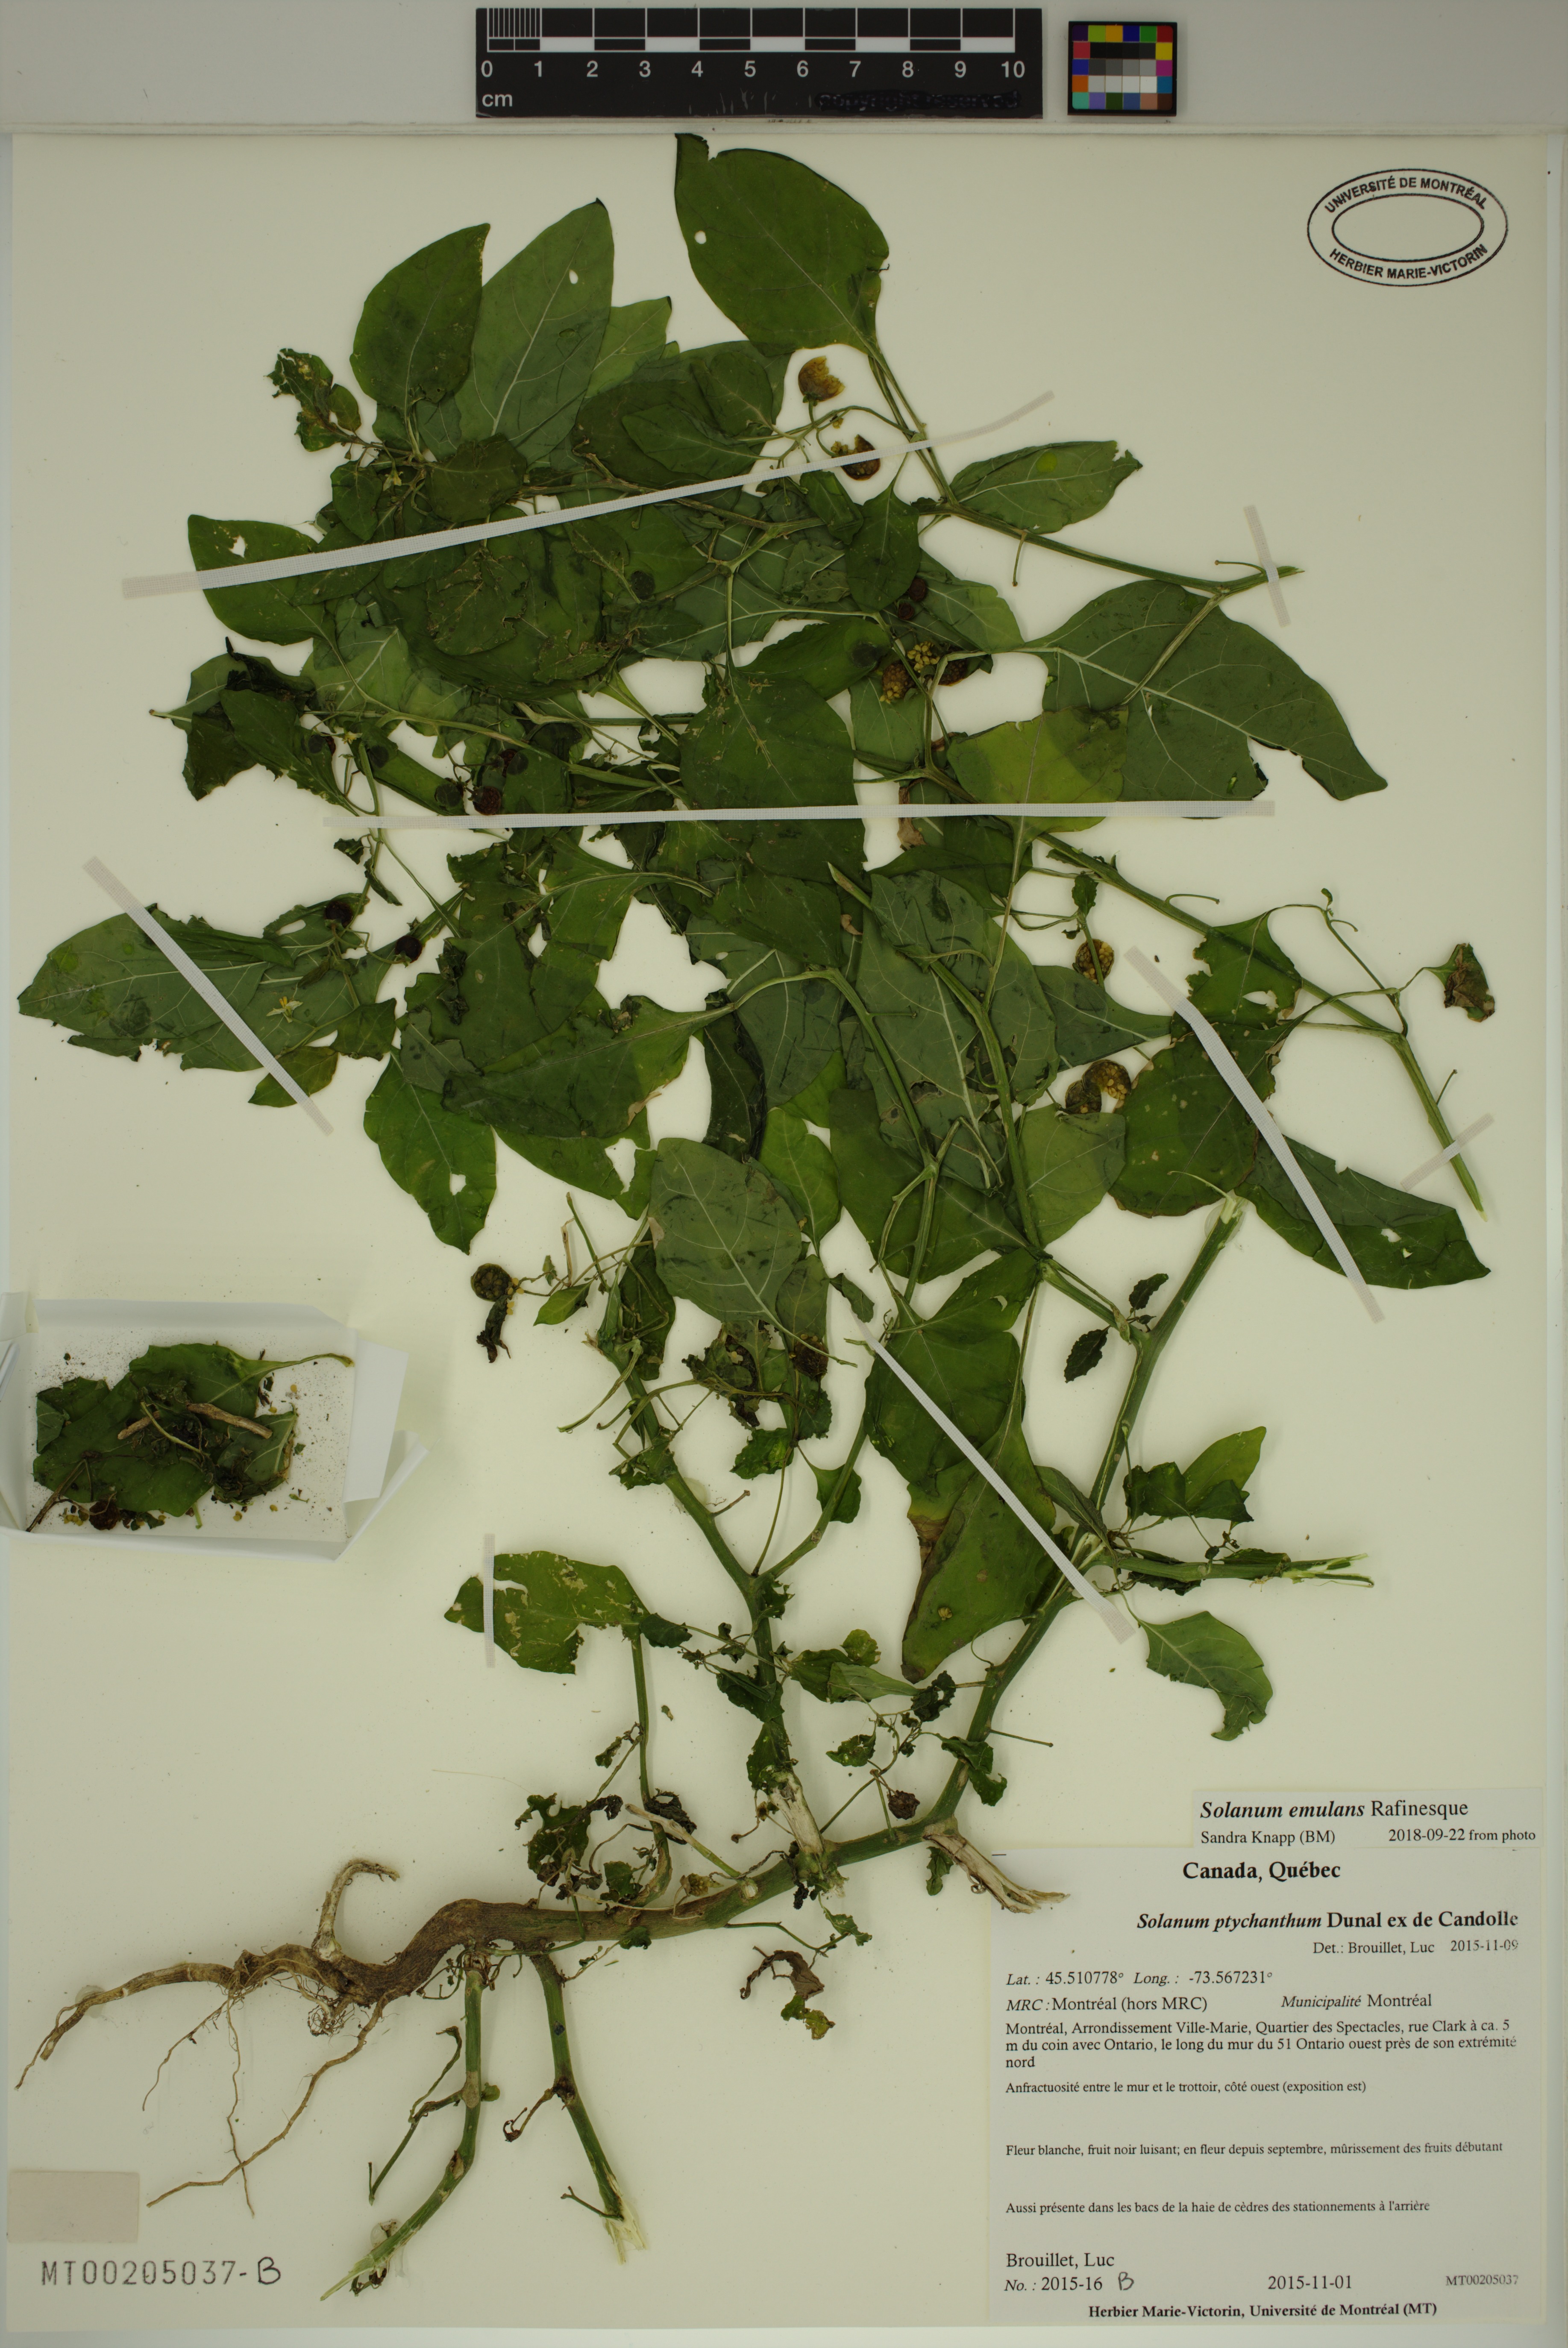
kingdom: Plantae
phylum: Tracheophyta
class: Magnoliopsida
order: Solanales
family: Solanaceae
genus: Solanum
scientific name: Solanum emulans
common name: Eastern black nightshade
